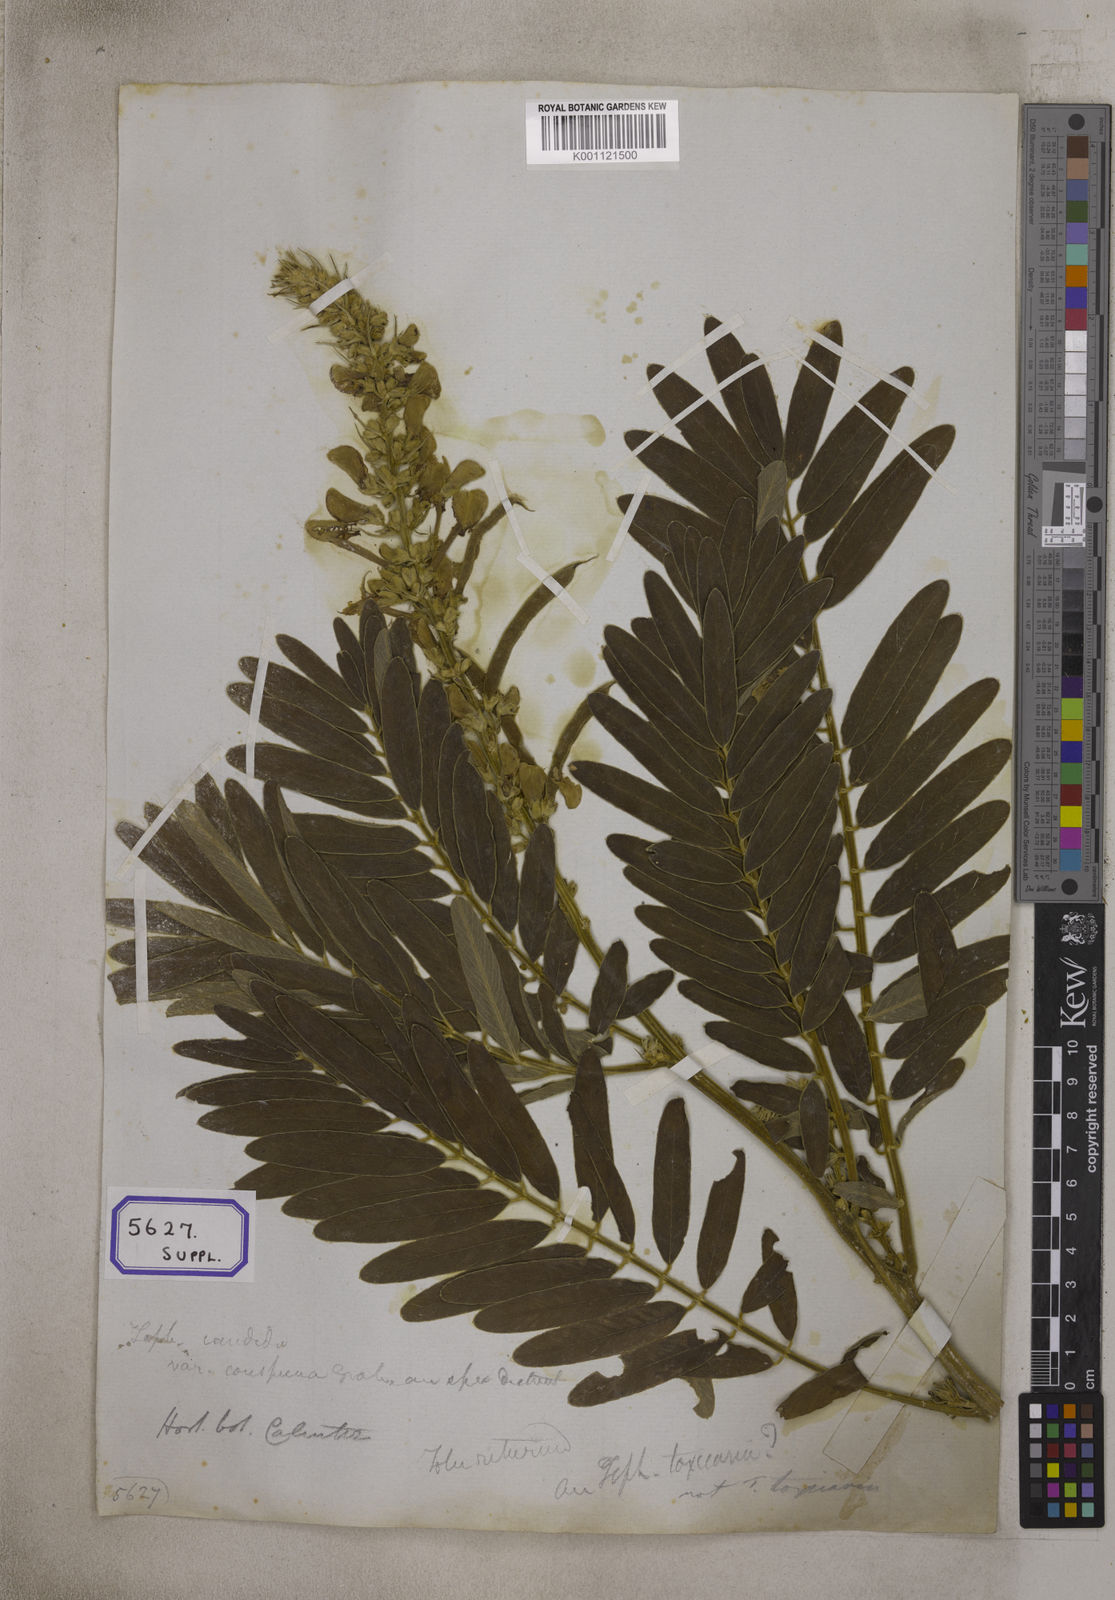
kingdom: Plantae
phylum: Tracheophyta
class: Magnoliopsida
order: Fabales
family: Fabaceae
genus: Tephrosia
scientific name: Tephrosia candida
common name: White tephrosia
